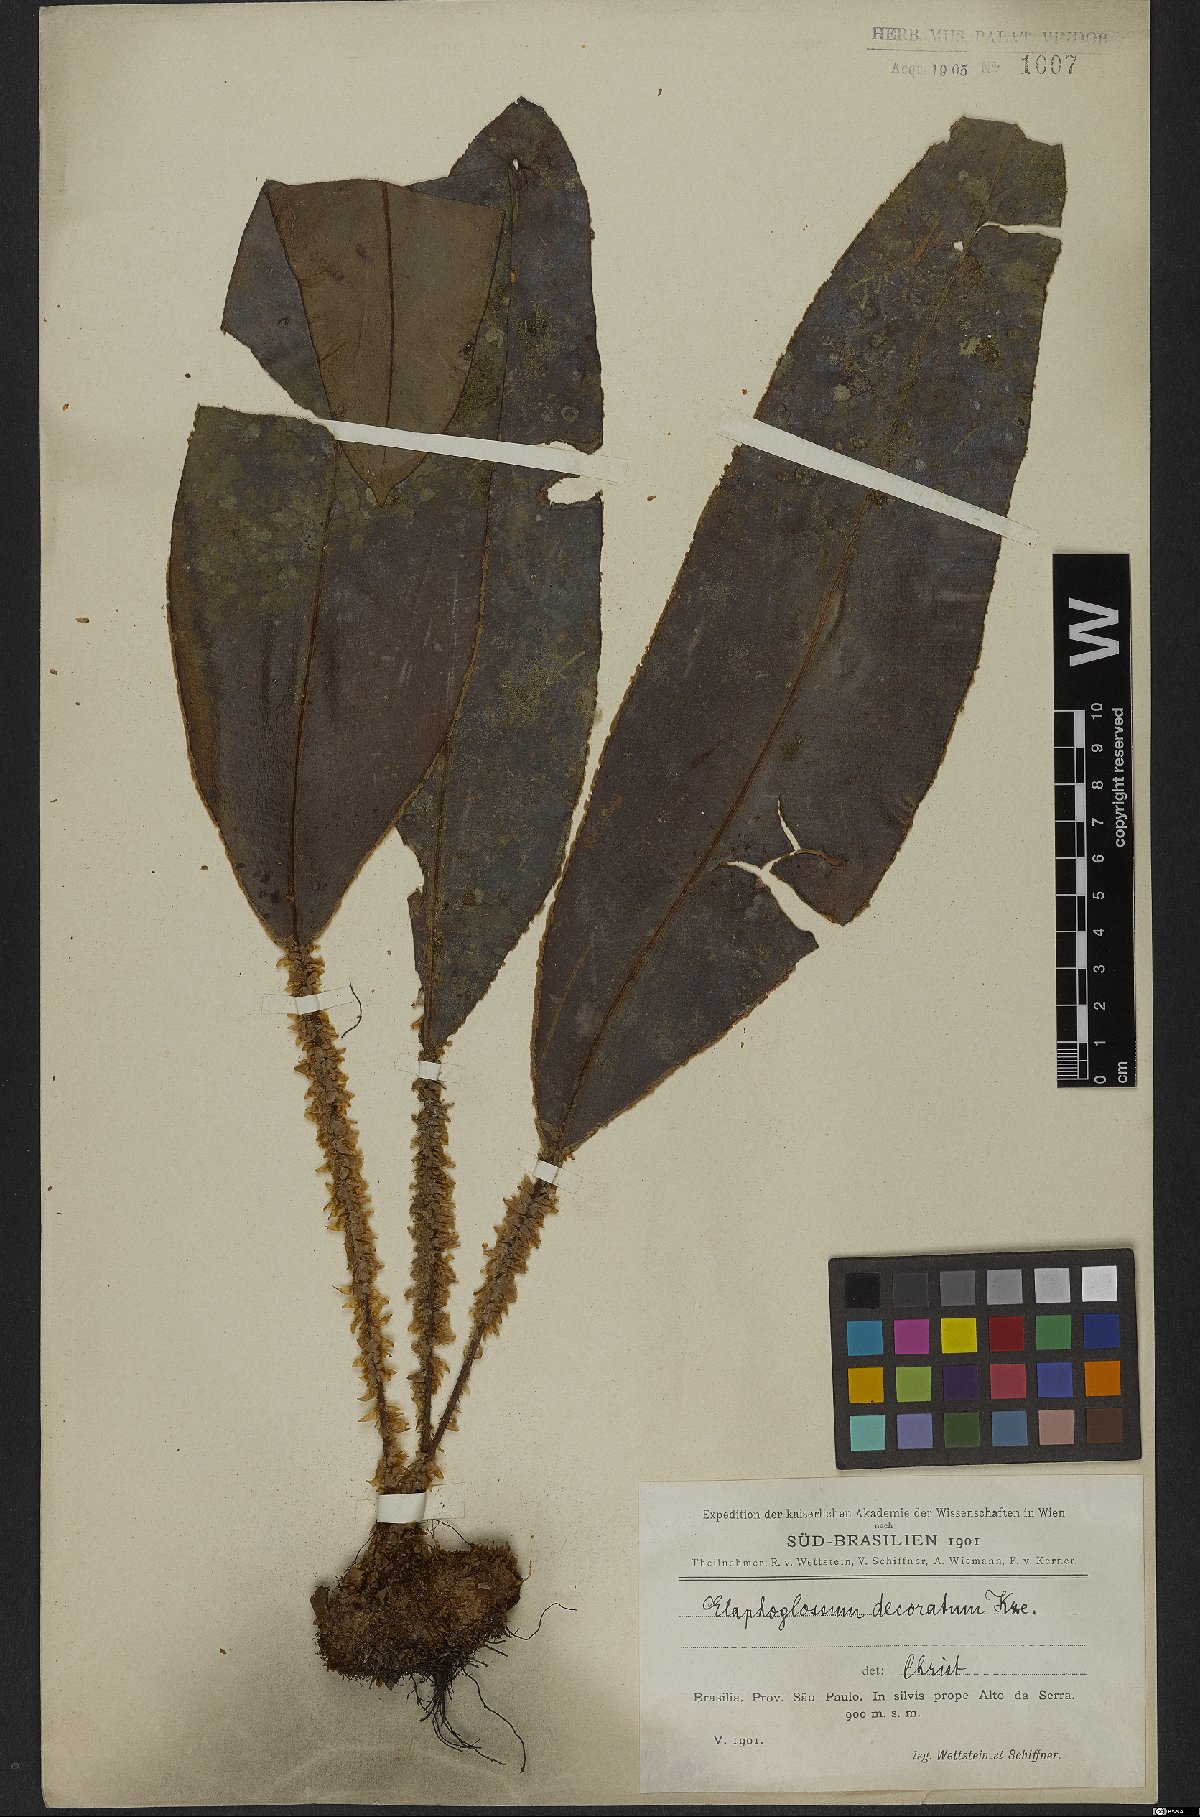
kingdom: Plantae
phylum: Tracheophyta
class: Polypodiopsida
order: Polypodiales
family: Dryopteridaceae
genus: Elaphoglossum
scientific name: Elaphoglossum decoratum
